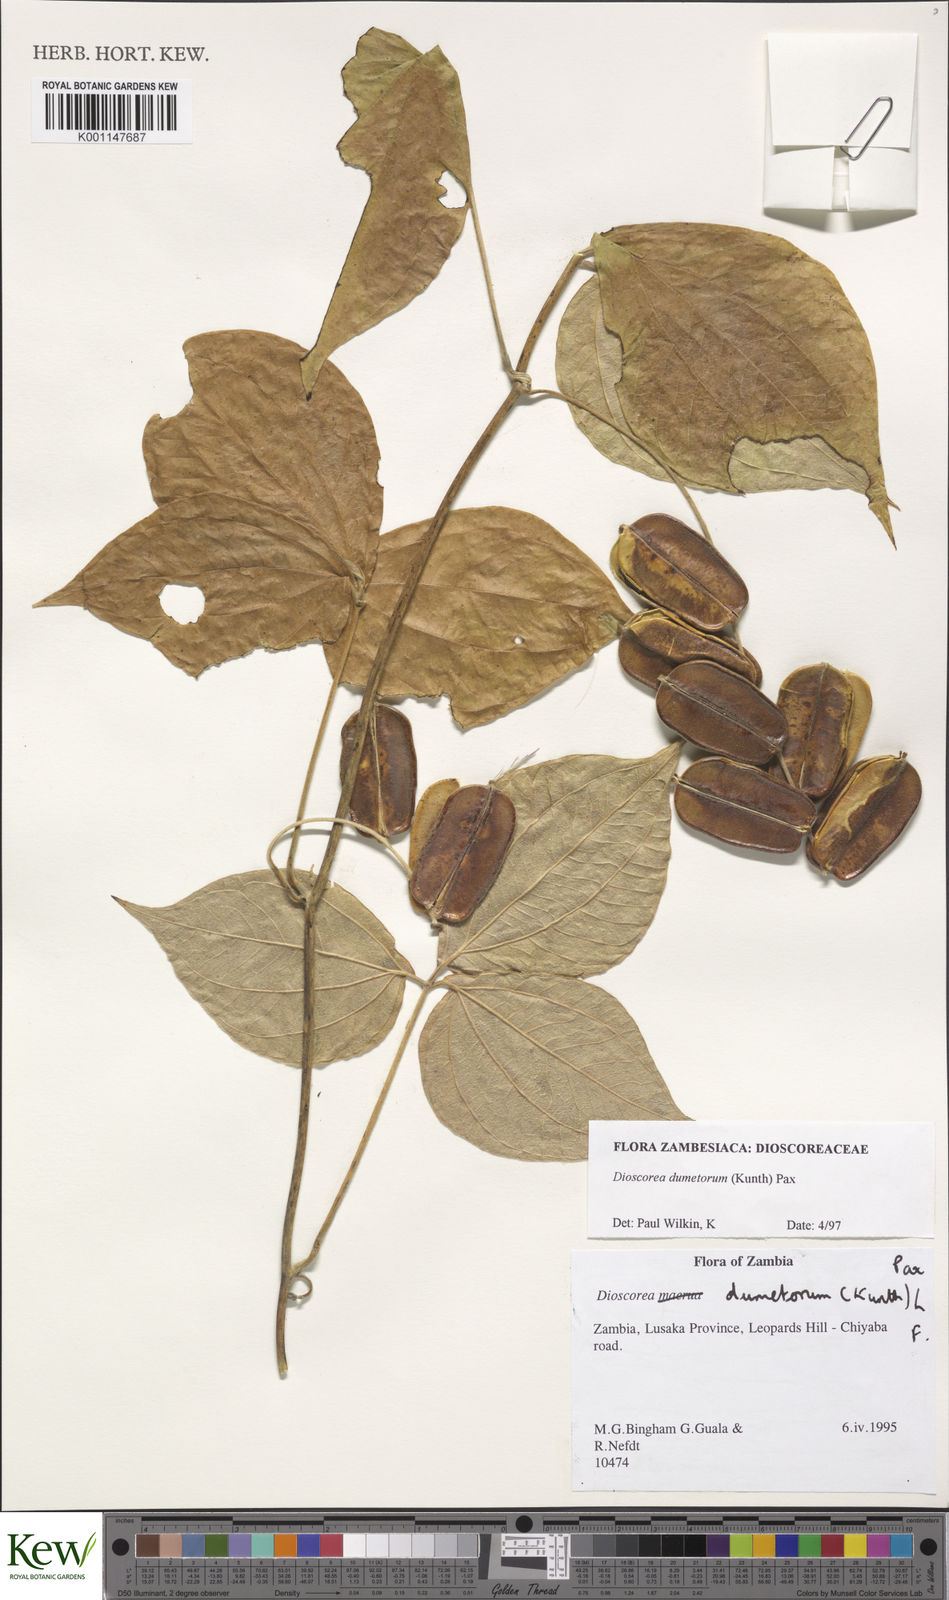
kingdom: Plantae
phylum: Tracheophyta
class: Liliopsida
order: Dioscoreales
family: Dioscoreaceae
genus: Dioscorea
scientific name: Dioscorea dumetorum
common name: African bitter yam
